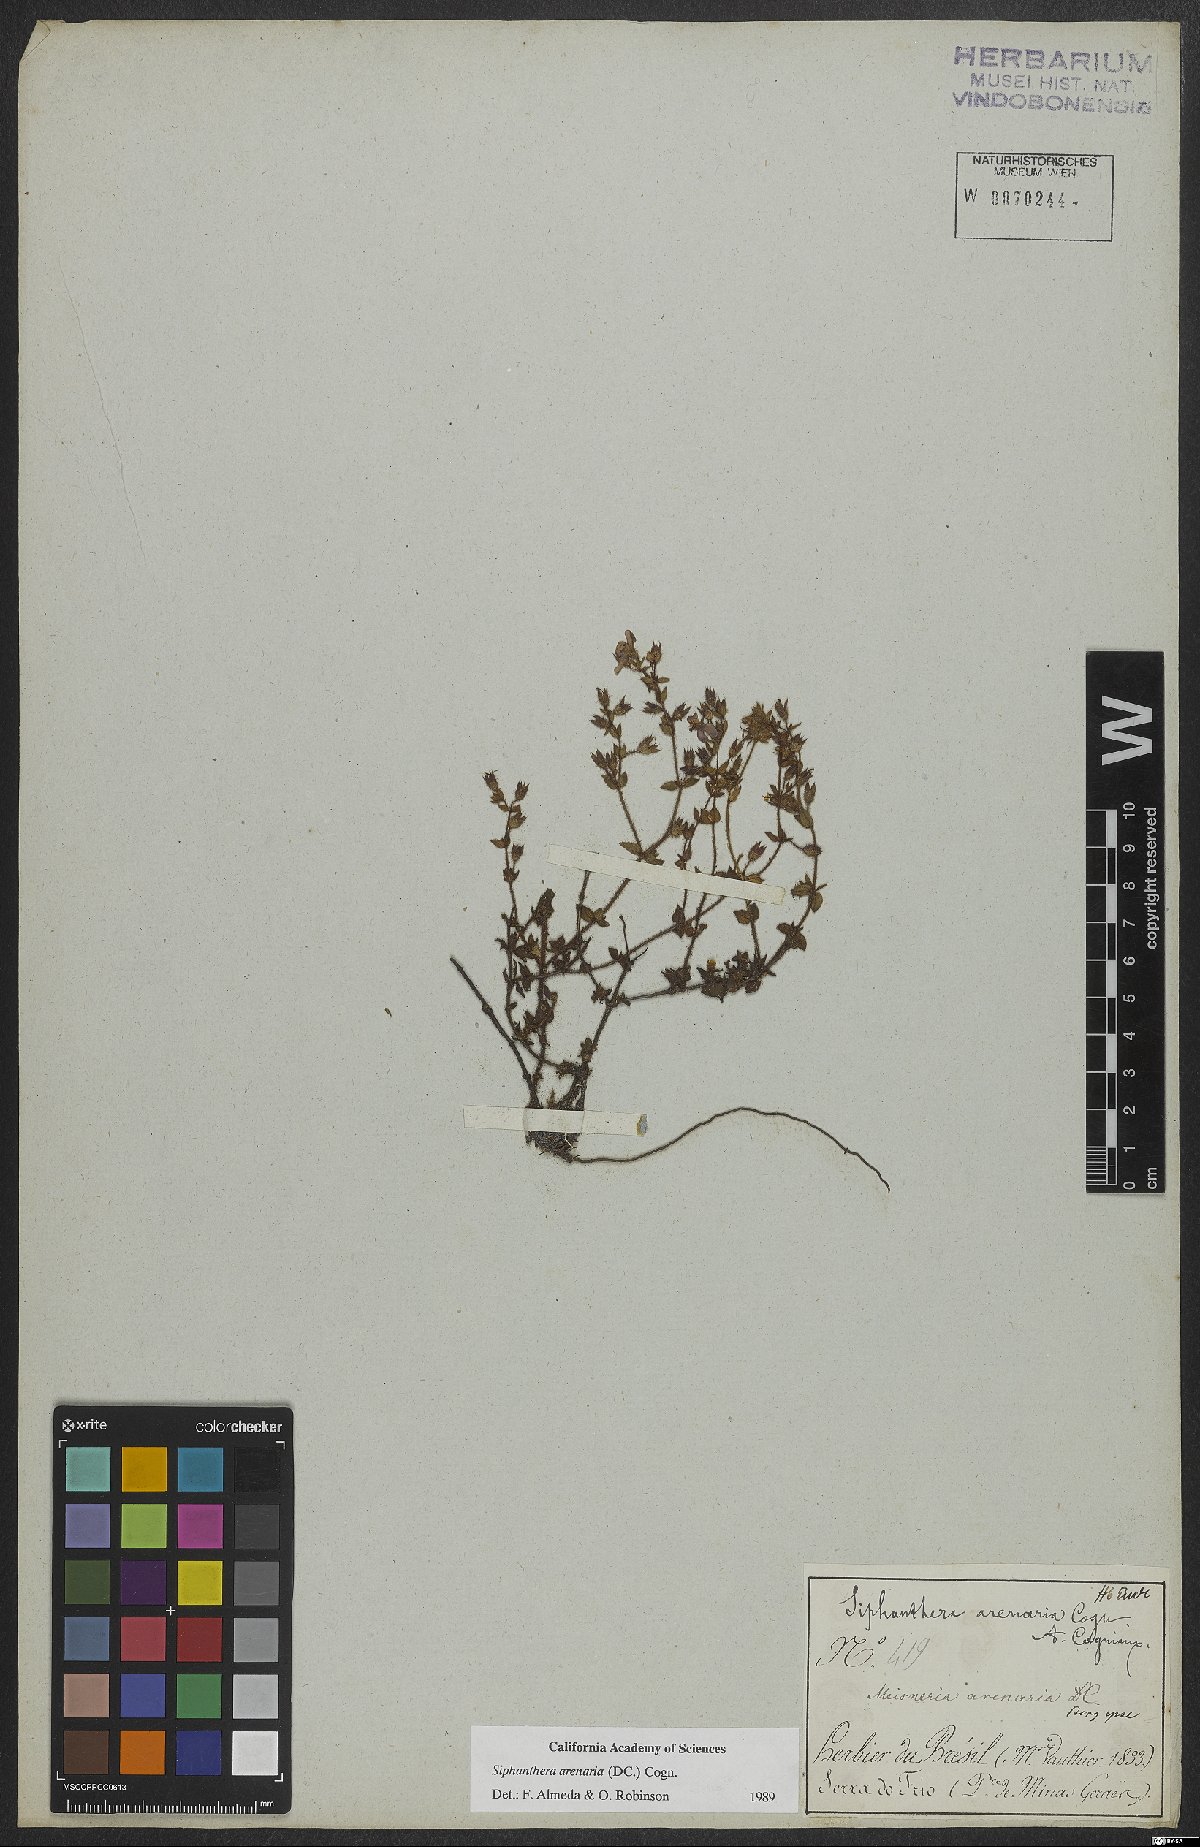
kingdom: Plantae
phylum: Tracheophyta
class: Magnoliopsida
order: Myrtales
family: Melastomataceae
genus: Siphanthera
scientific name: Siphanthera arenaria
